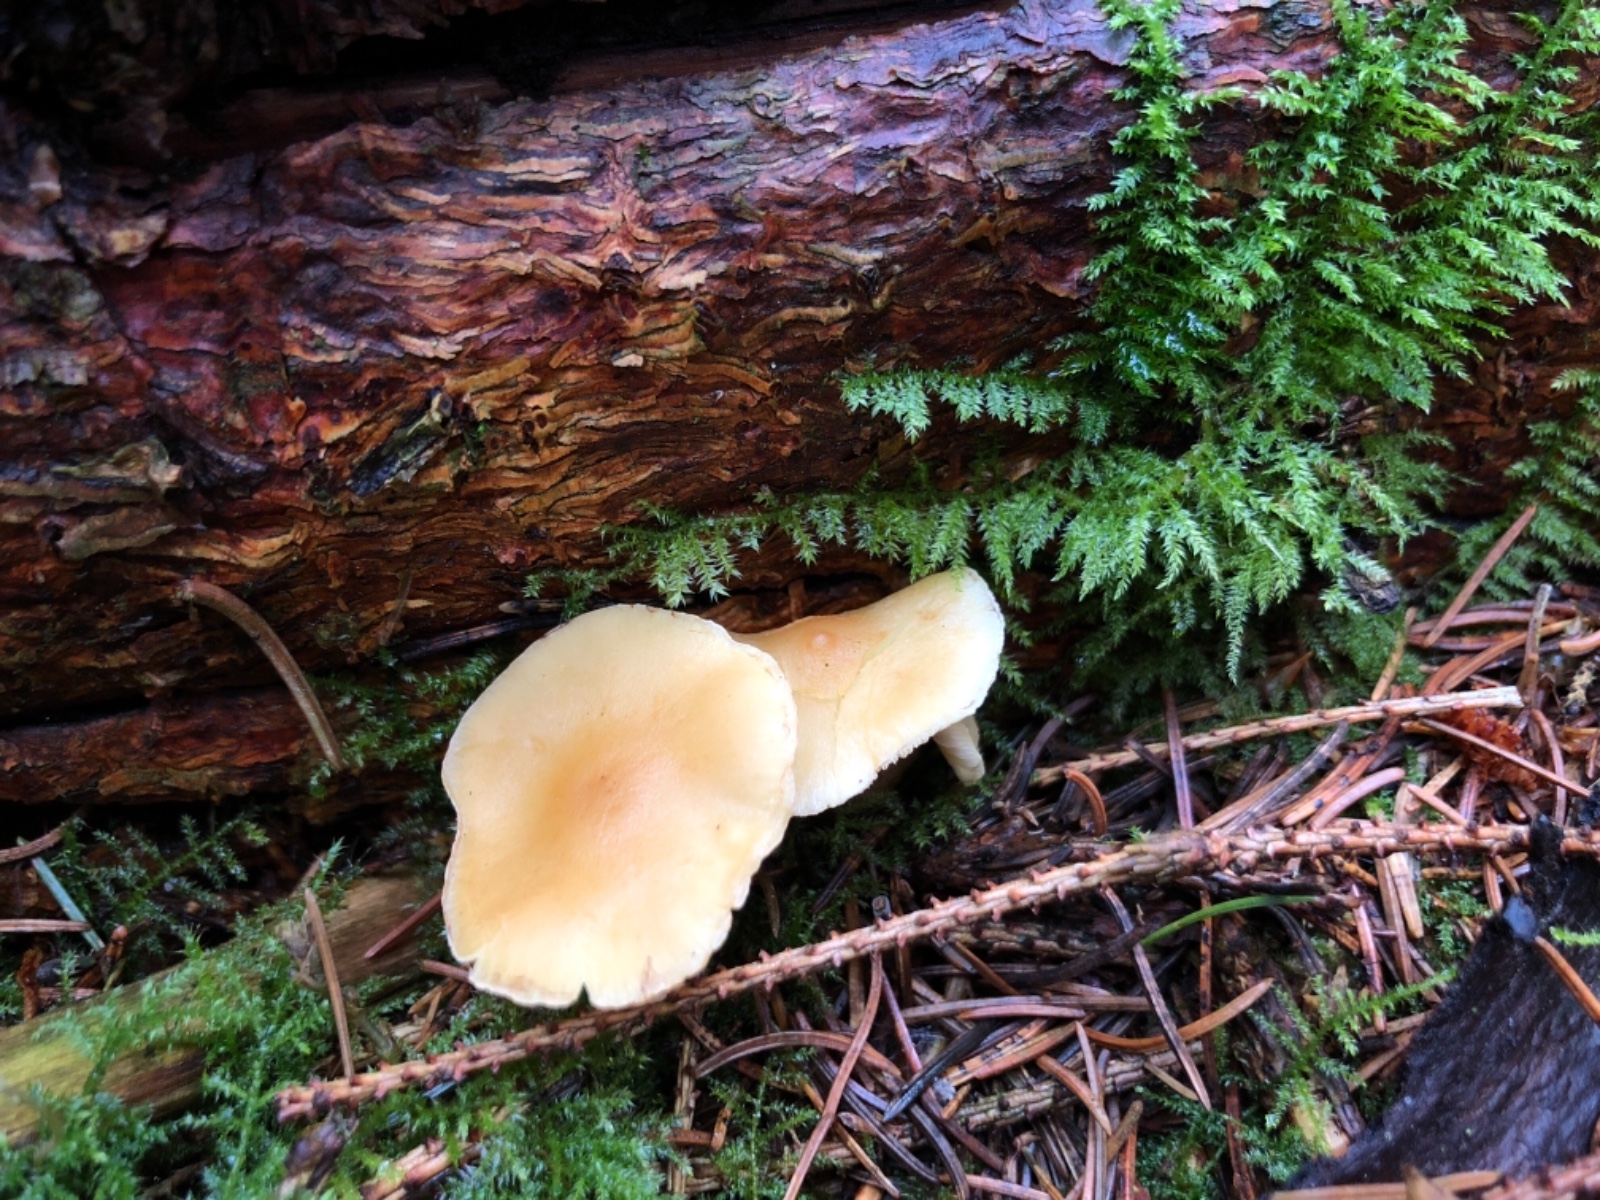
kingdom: Fungi
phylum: Basidiomycota
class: Agaricomycetes
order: Agaricales
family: Strophariaceae
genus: Hypholoma
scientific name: Hypholoma capnoides
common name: gran-svovlhat
